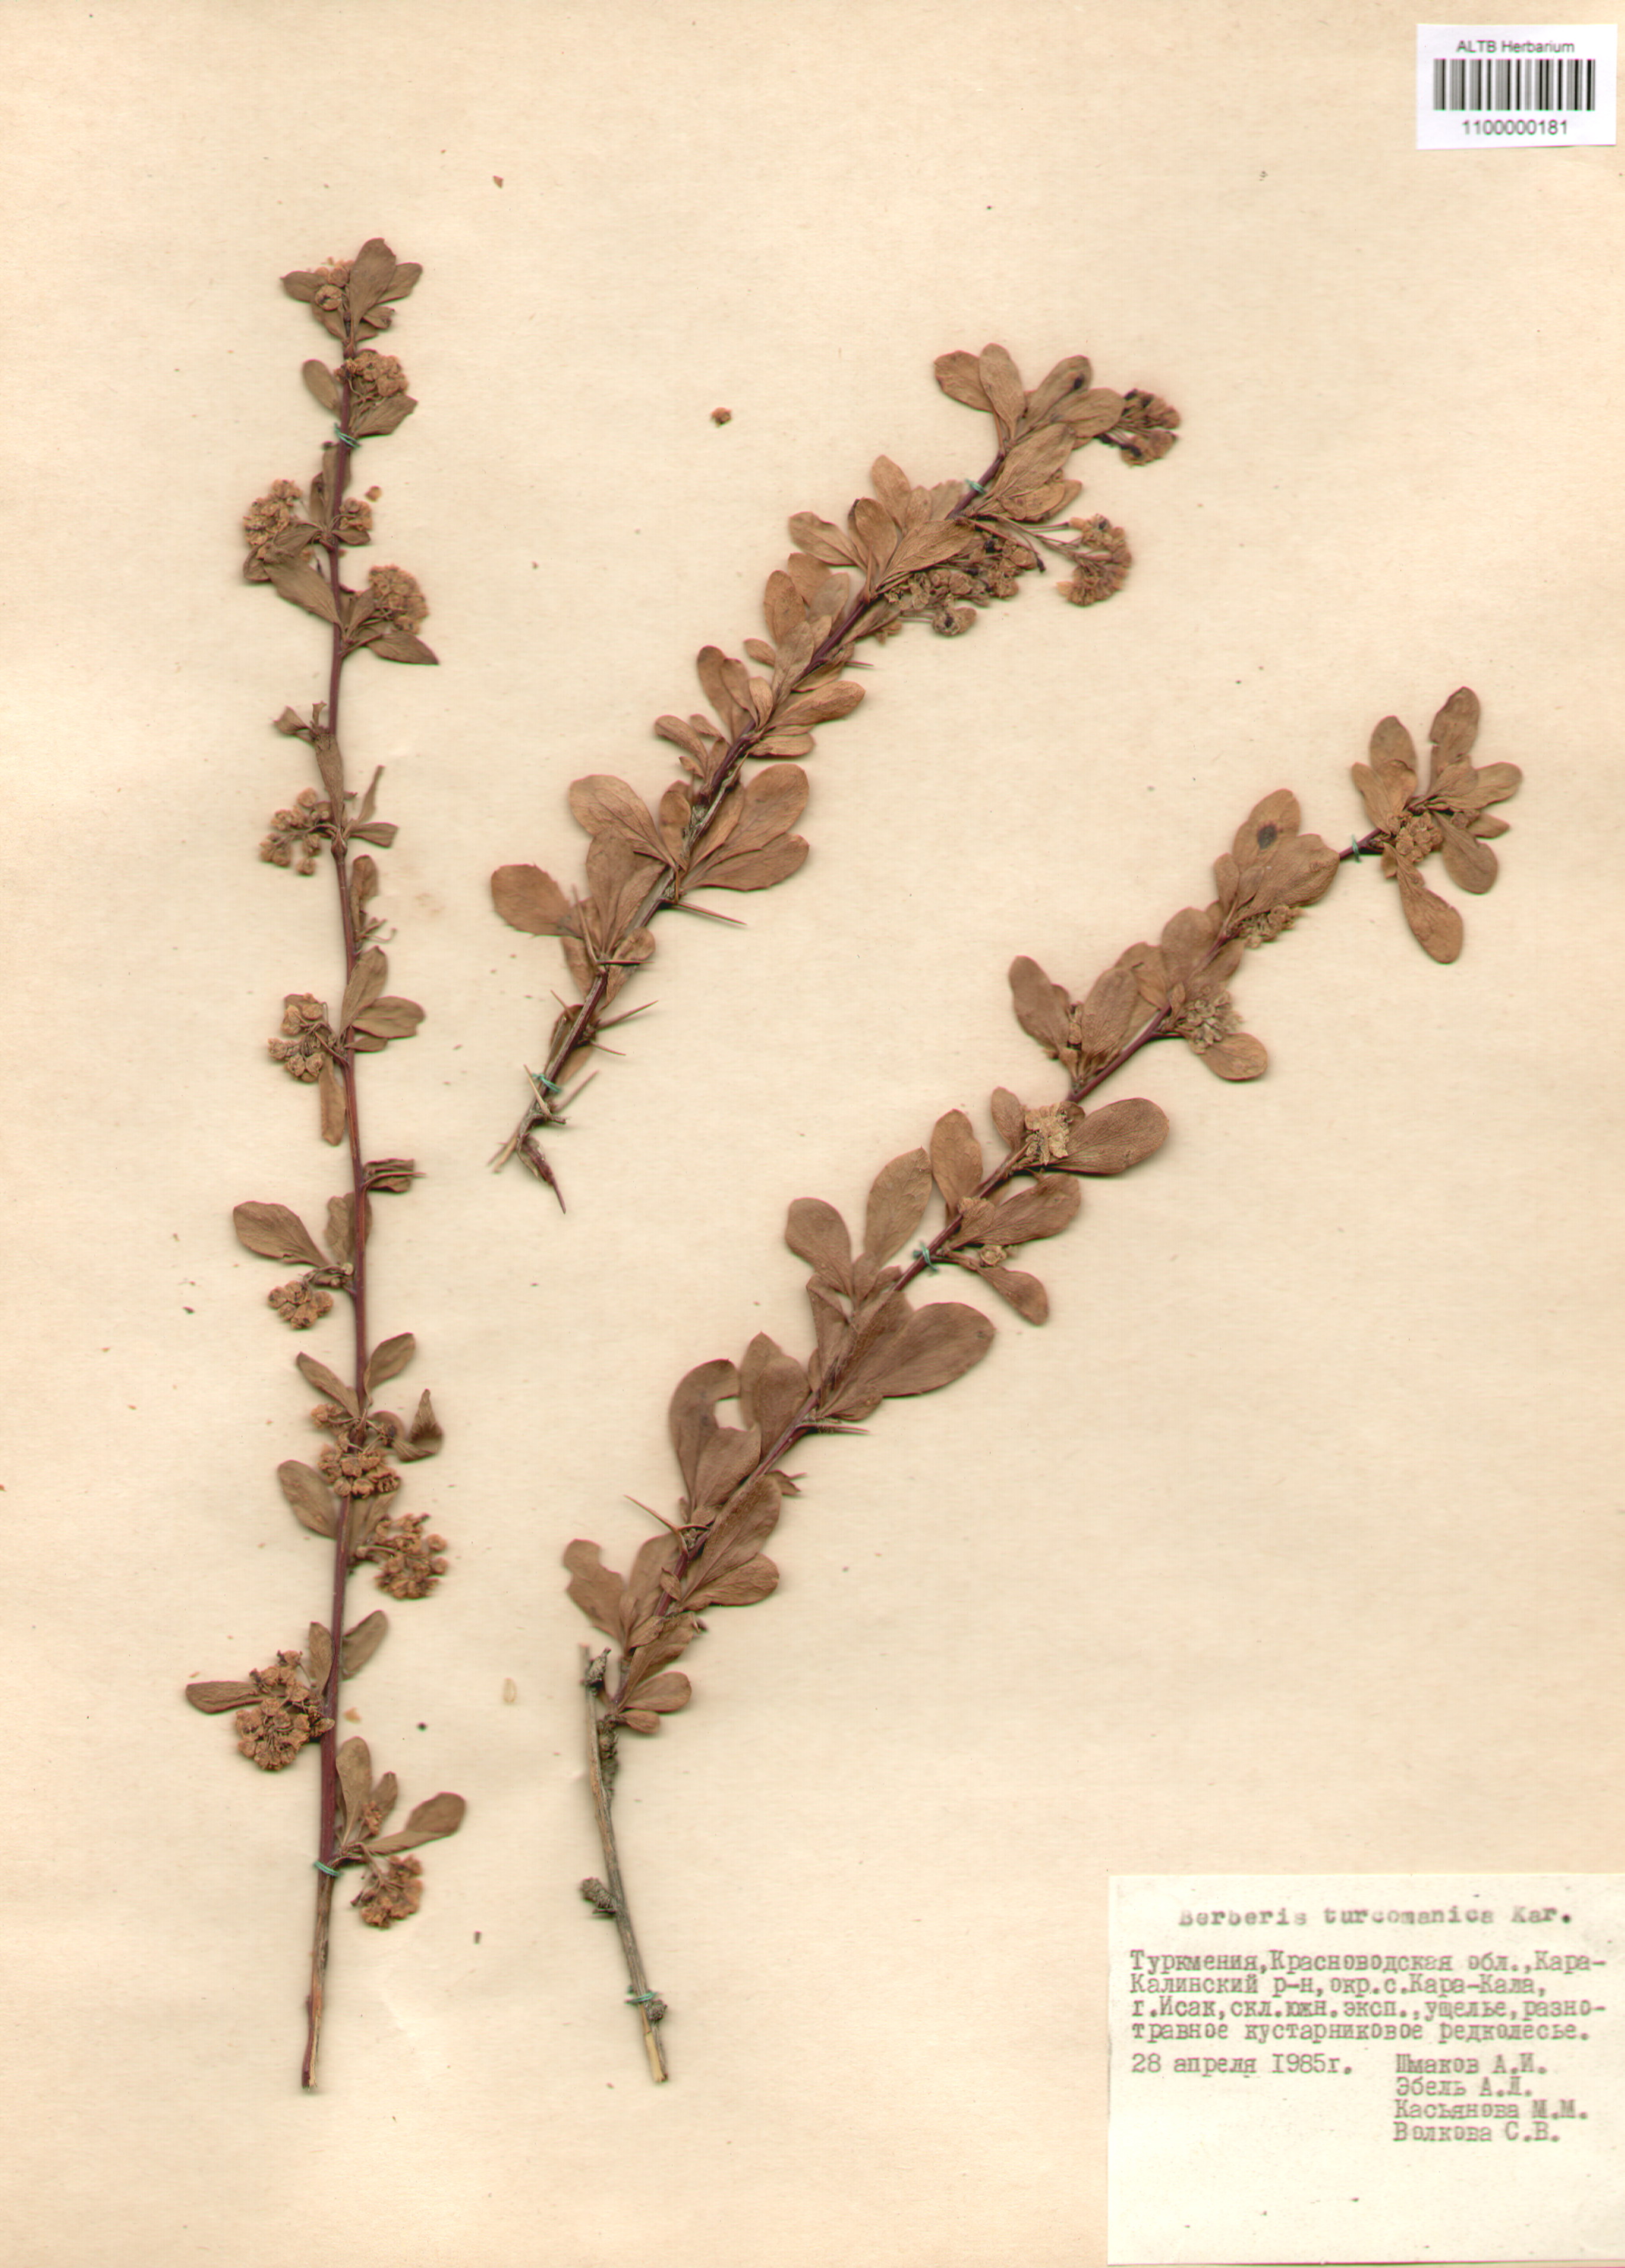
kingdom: Plantae
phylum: Tracheophyta
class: Magnoliopsida
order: Ranunculales
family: Berberidaceae
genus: Berberis
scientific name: Berberis turcomanica
